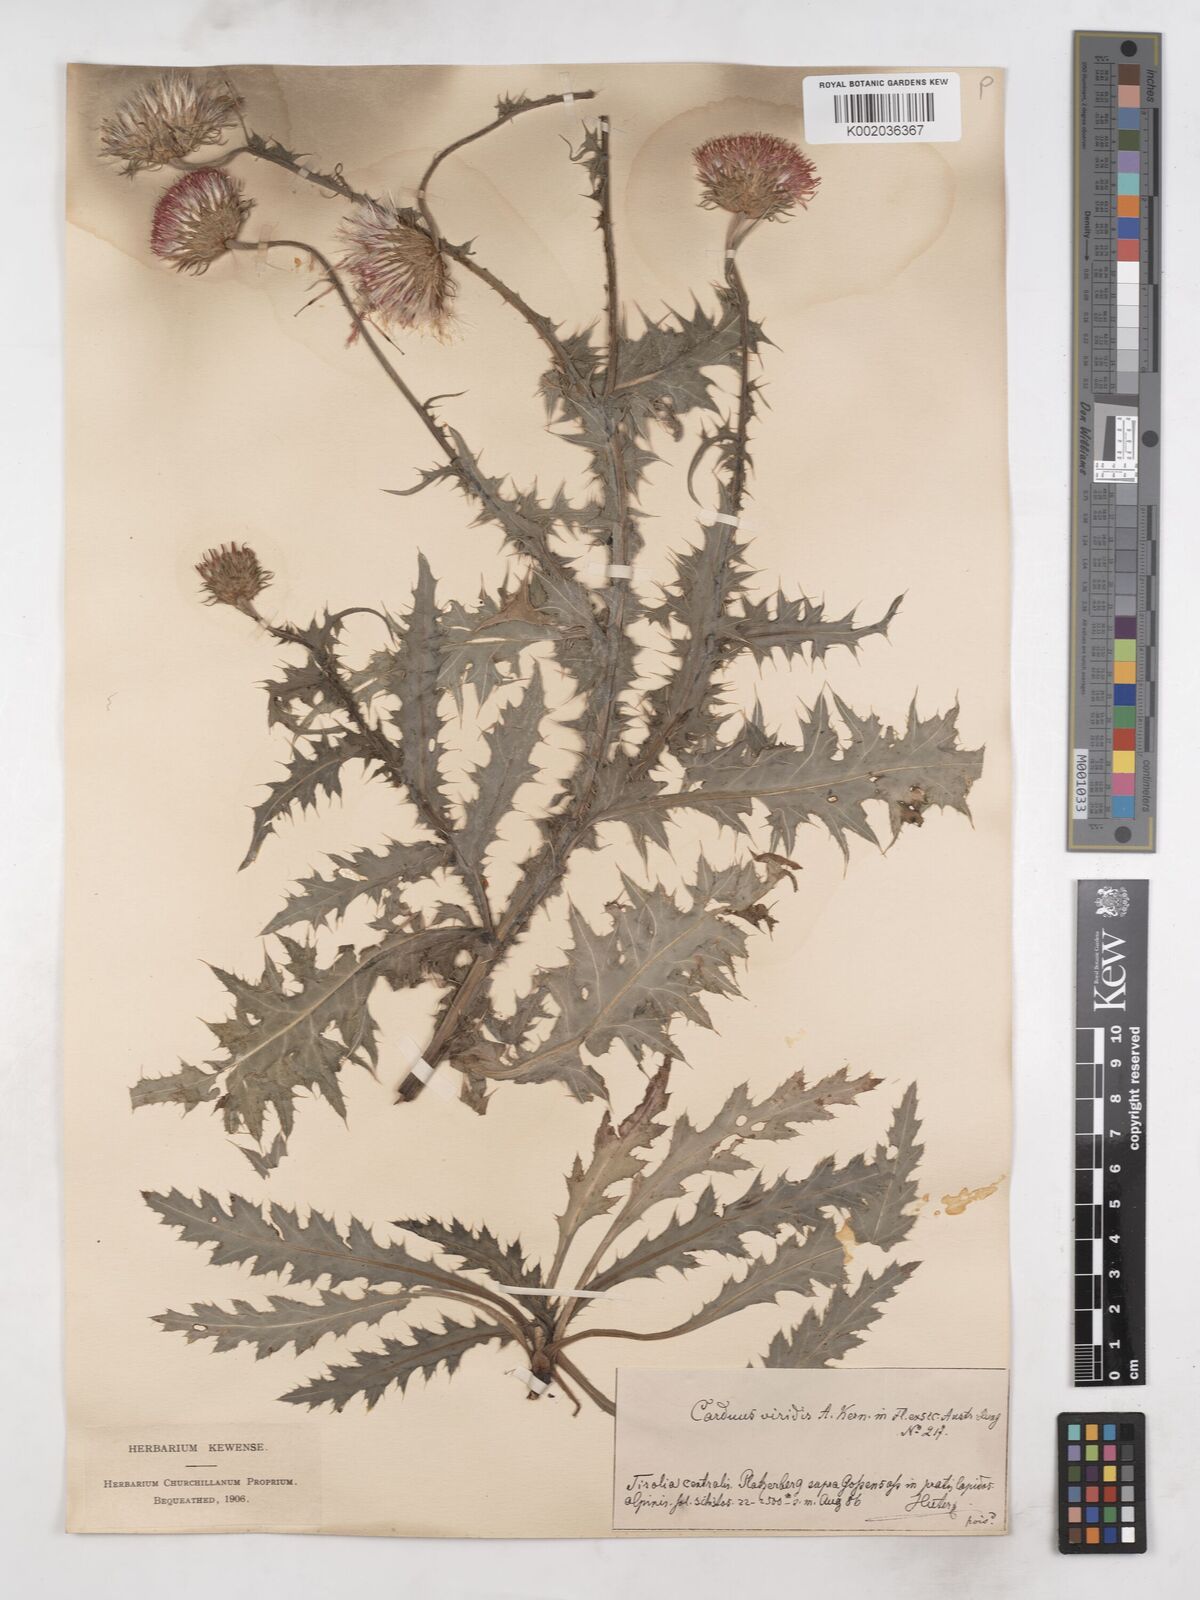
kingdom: Plantae
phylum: Tracheophyta
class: Magnoliopsida
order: Asterales
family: Asteraceae
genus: Carduus
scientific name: Carduus defloratus
